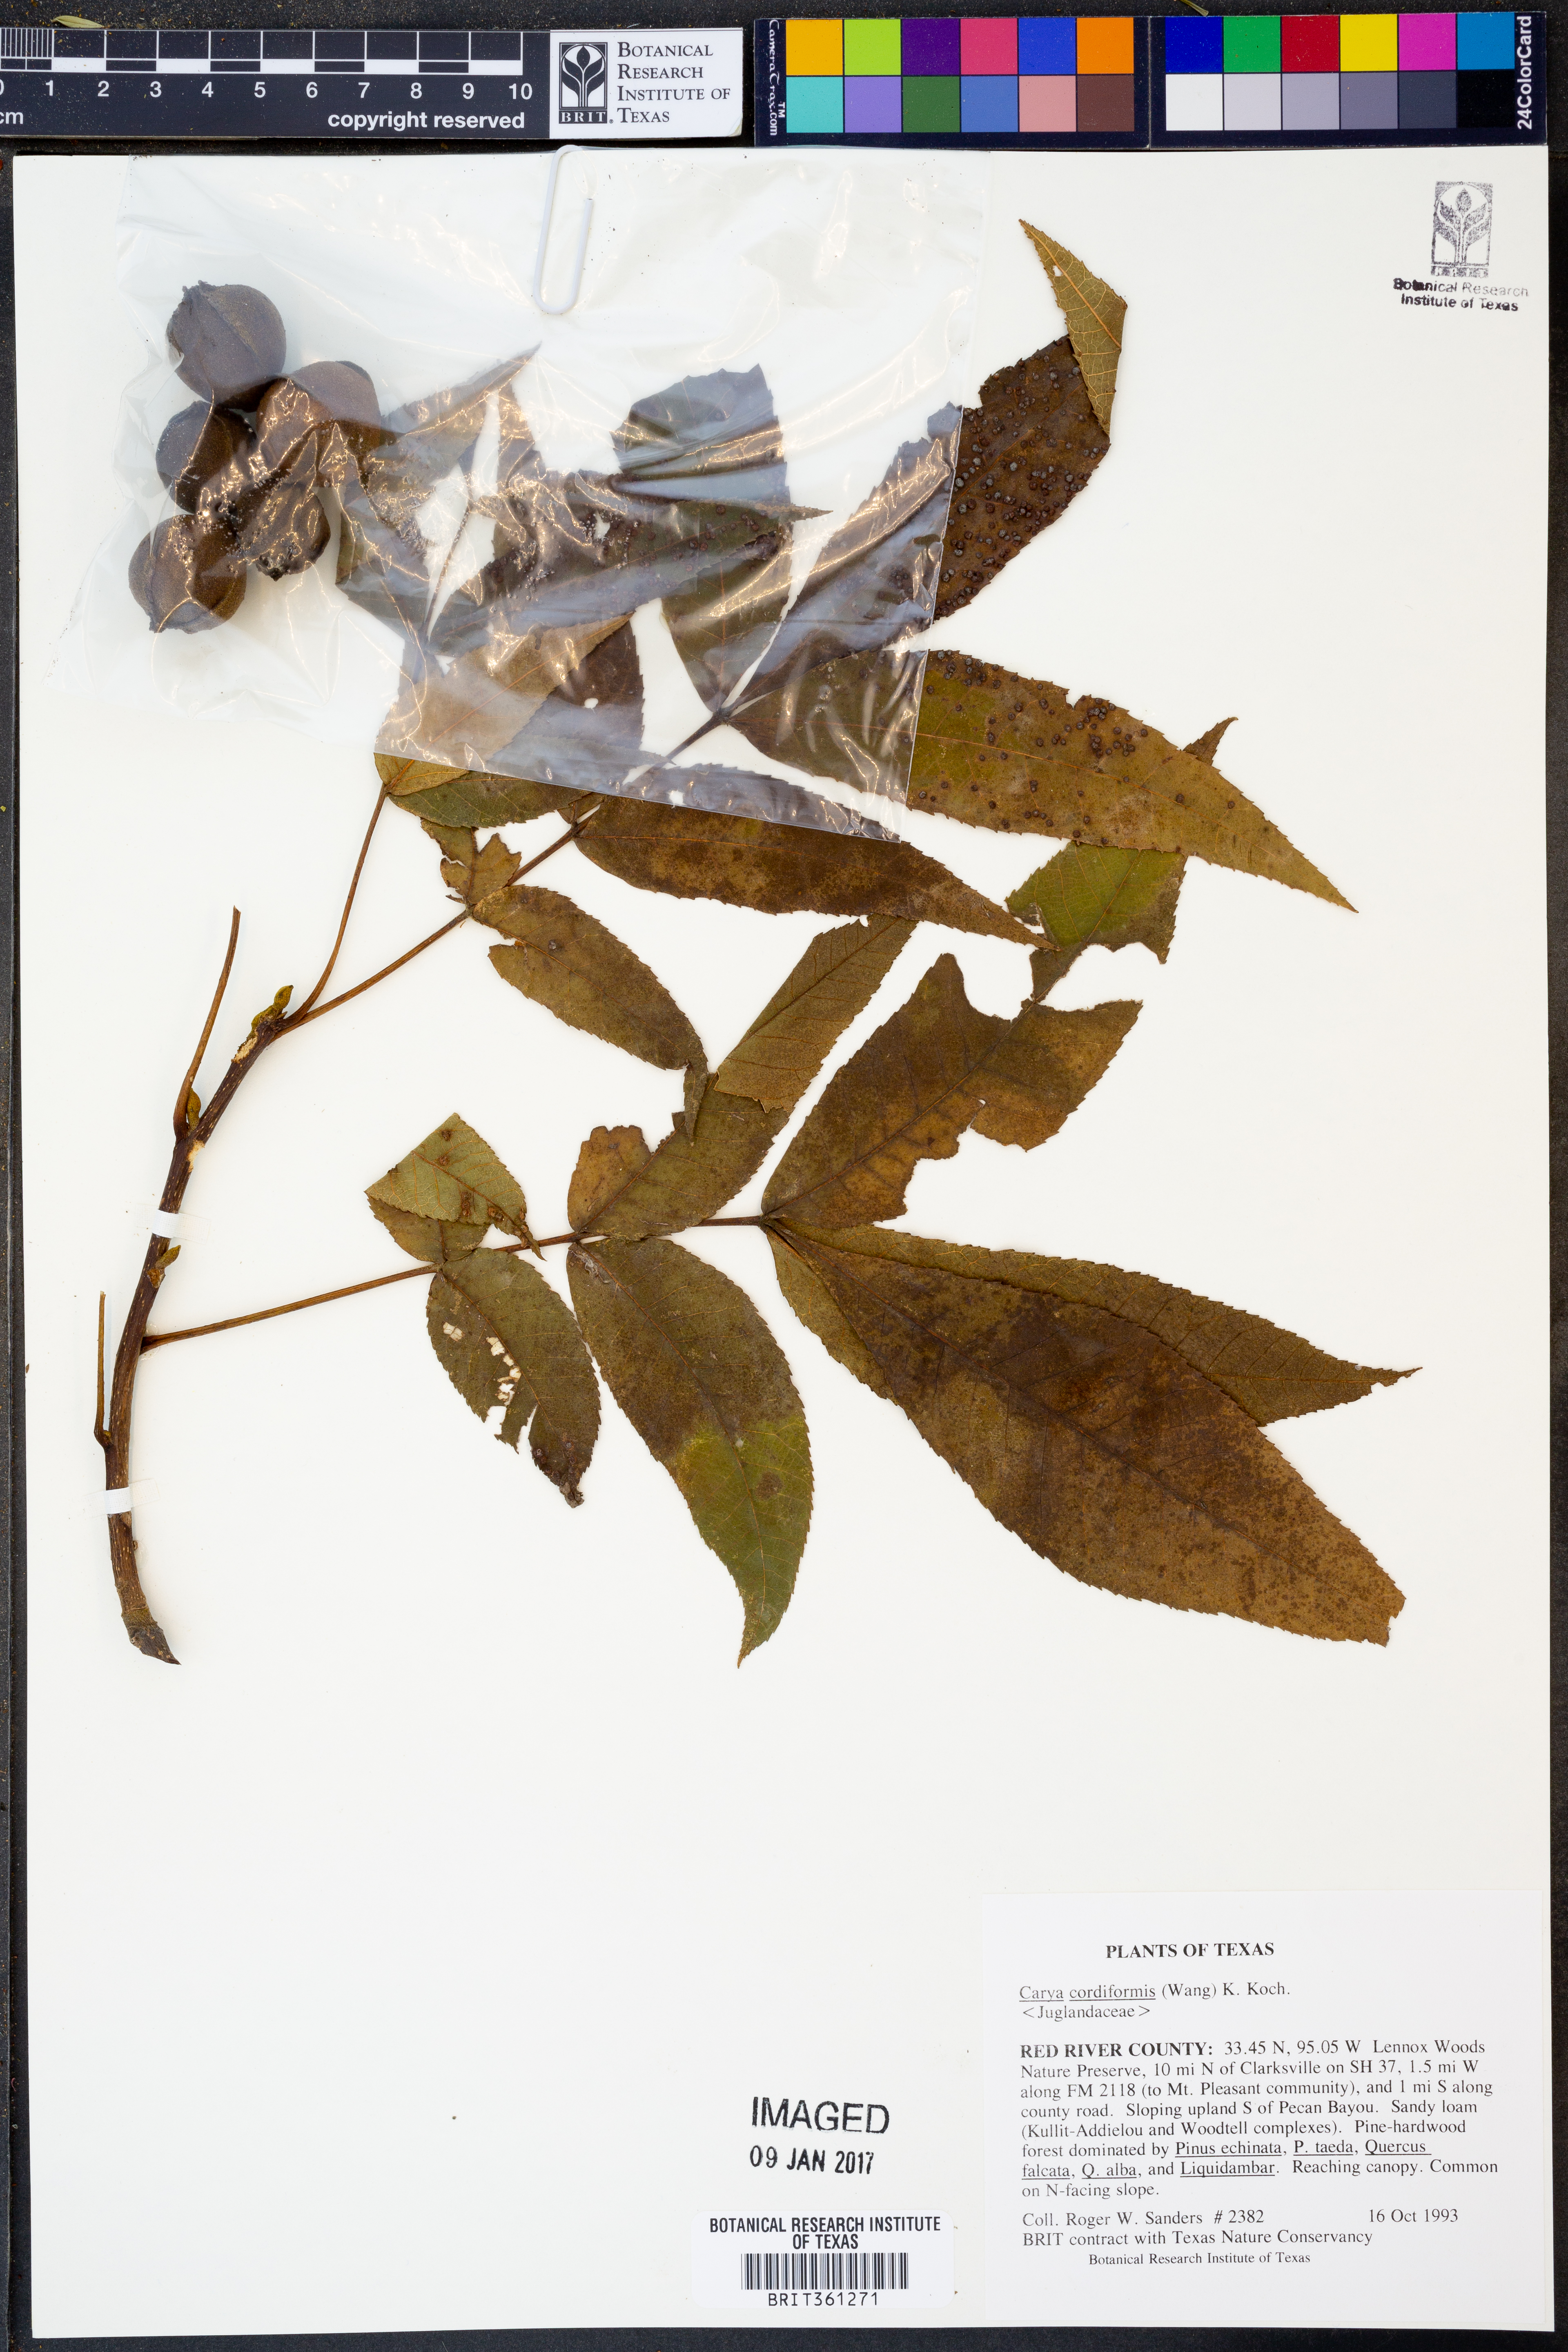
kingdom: Plantae
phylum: Tracheophyta
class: Magnoliopsida
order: Fagales
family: Juglandaceae
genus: Carya
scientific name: Carya cordiformis
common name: Bitternut hickory
